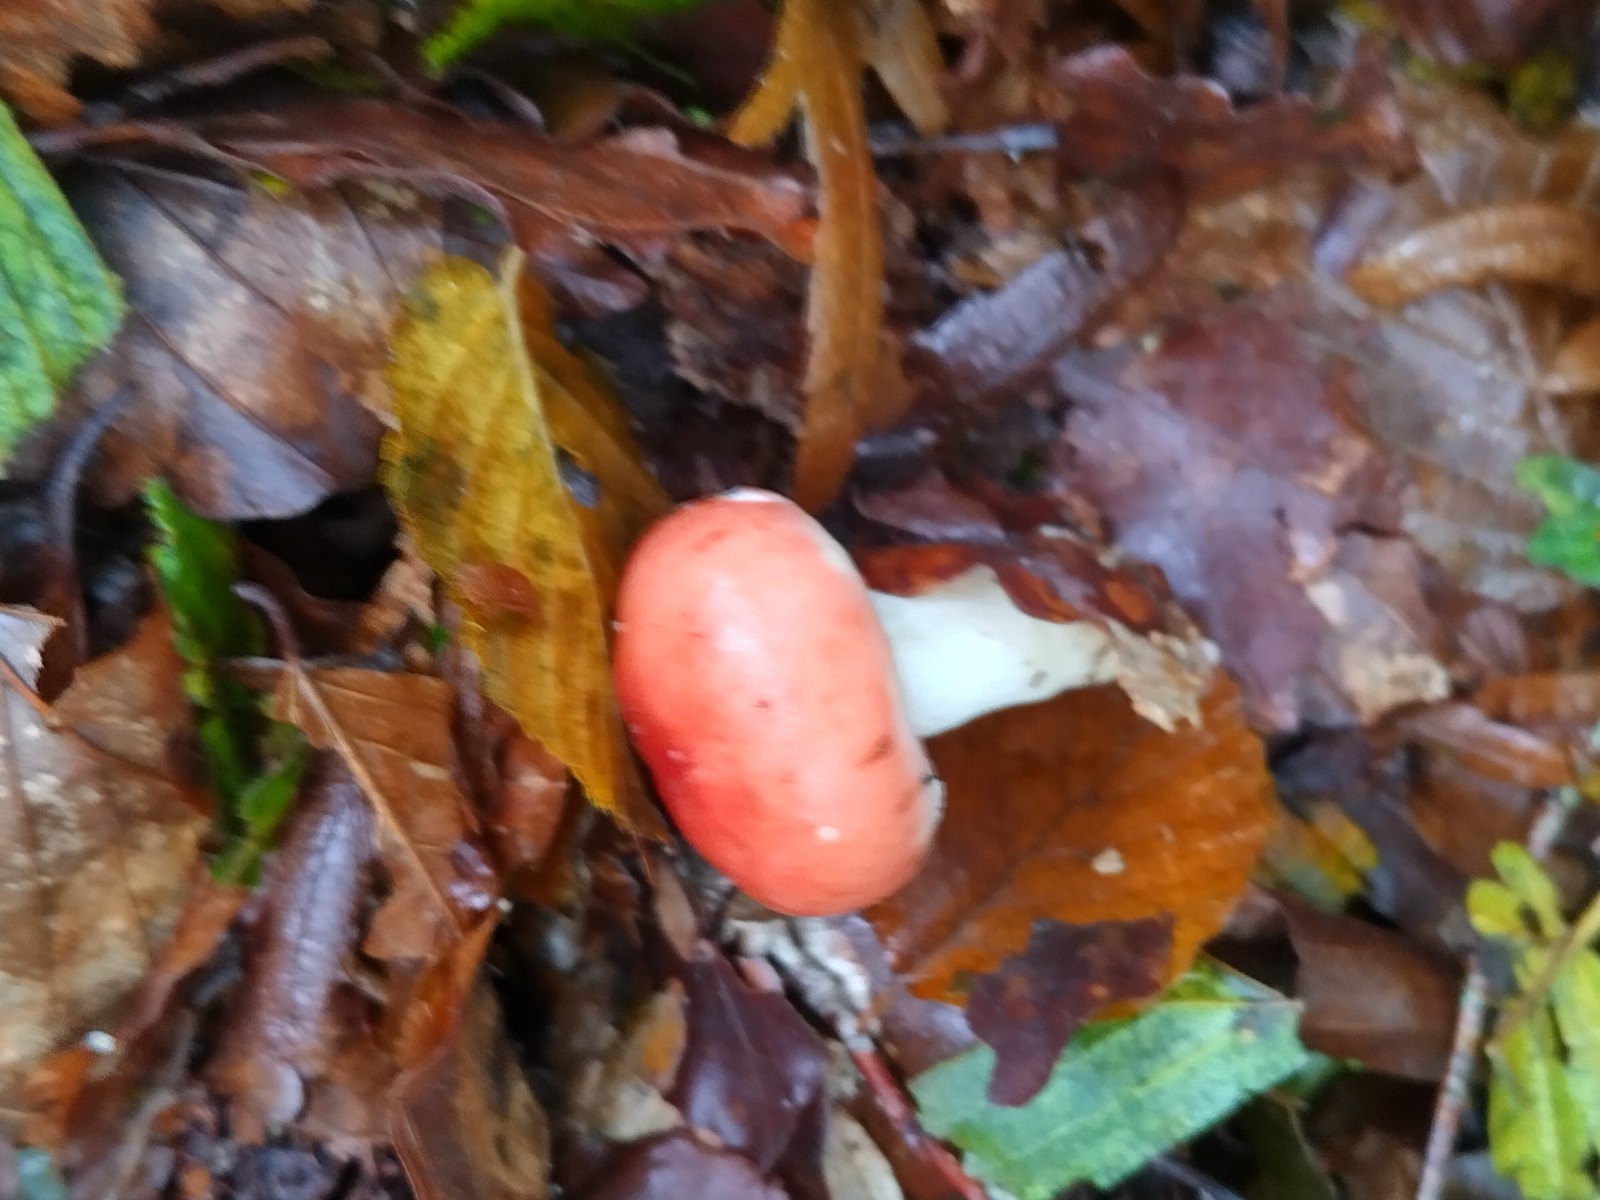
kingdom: Fungi
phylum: Basidiomycota
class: Agaricomycetes
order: Russulales
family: Russulaceae
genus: Russula
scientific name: Russula nobilis
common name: lille gift-skørhat
